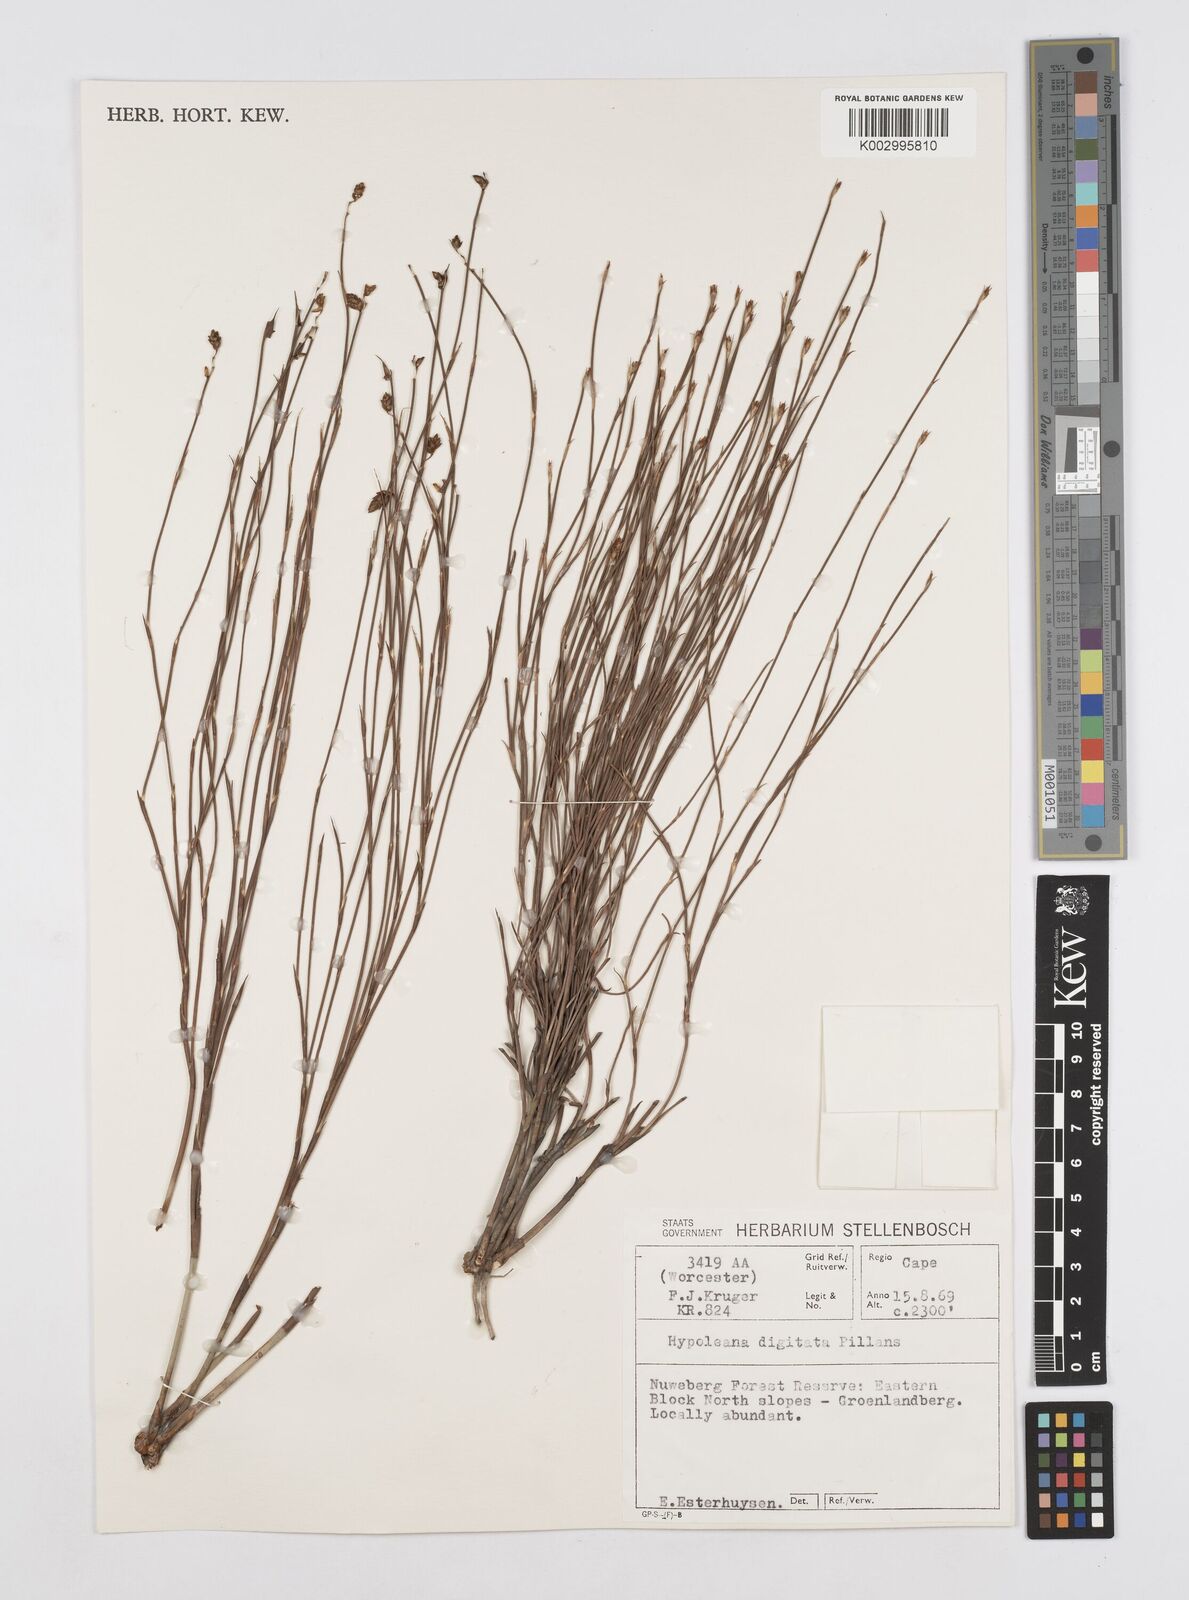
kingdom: Plantae
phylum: Tracheophyta
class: Liliopsida
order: Poales
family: Restionaceae
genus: Mastersiella
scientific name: Mastersiella digitata
